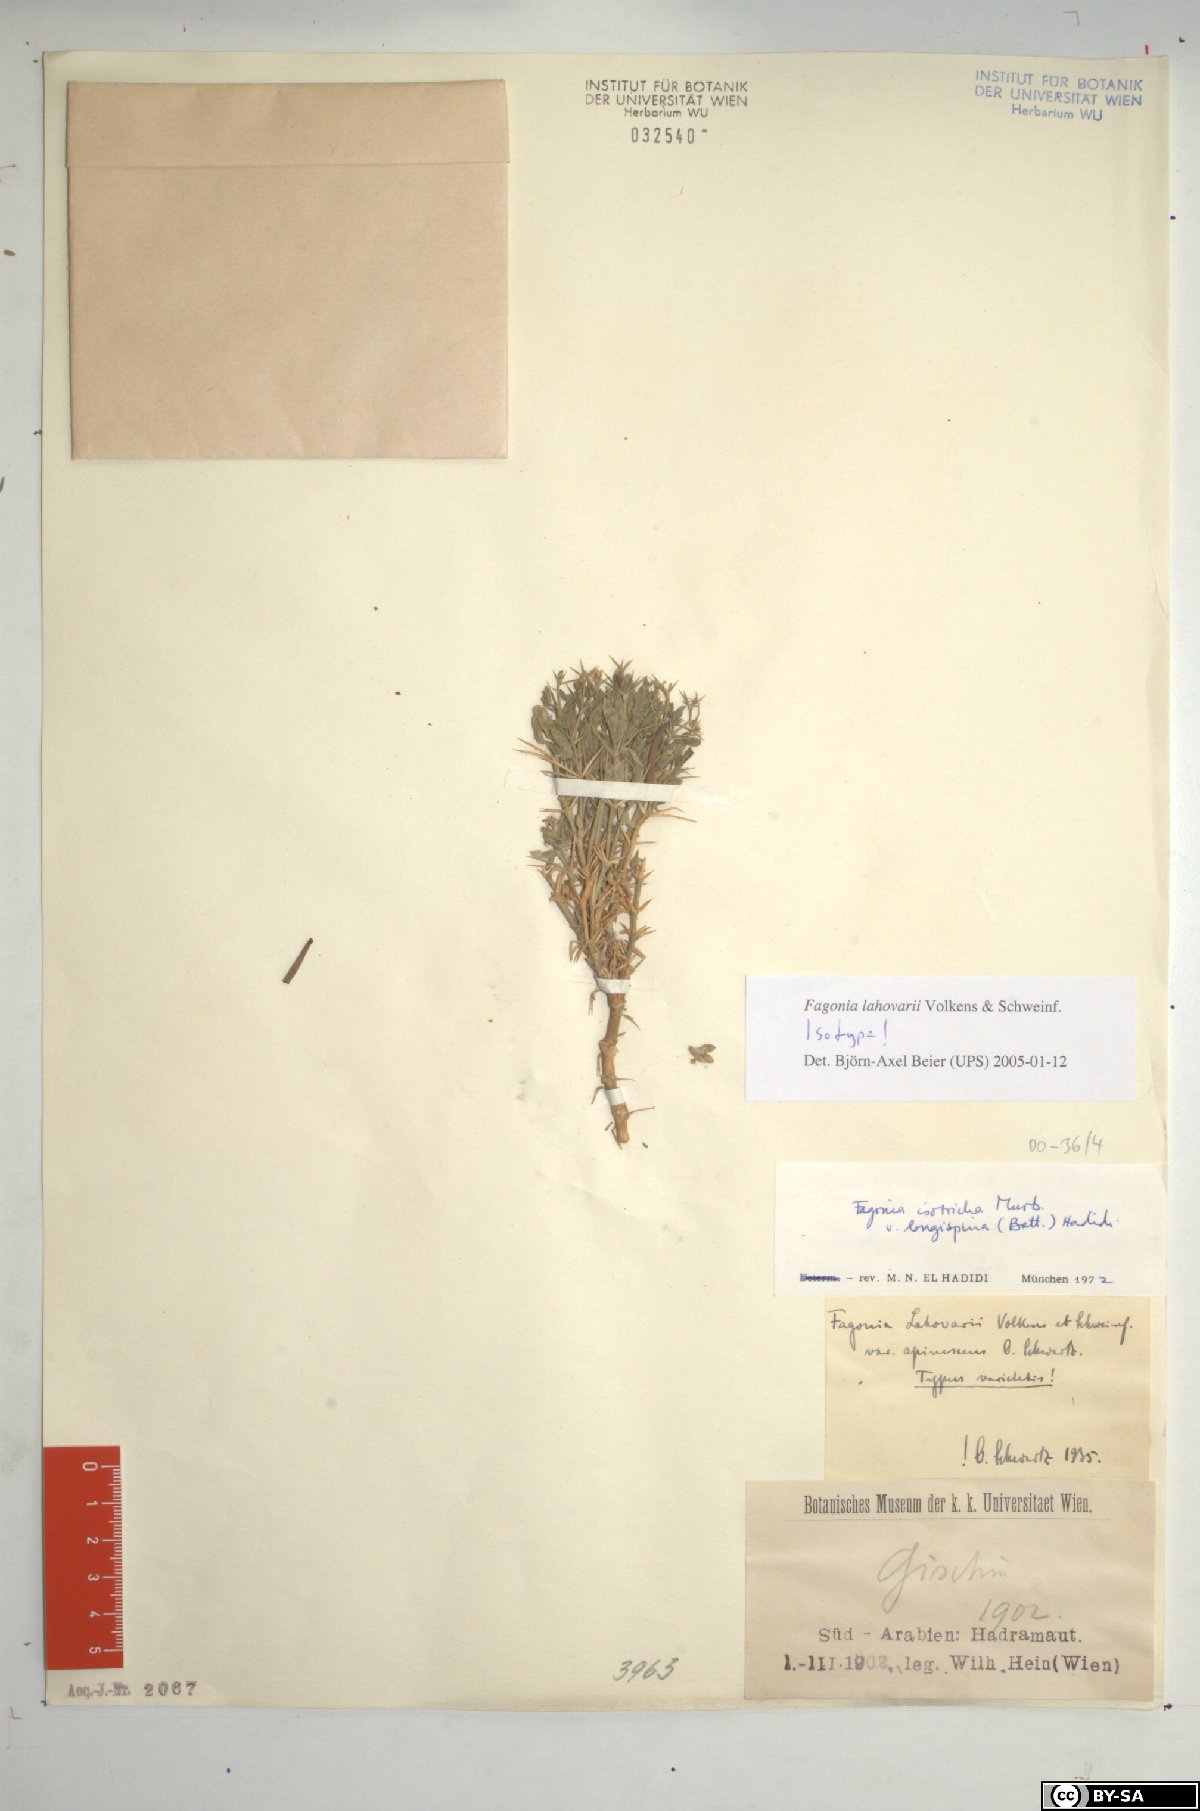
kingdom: Plantae
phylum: Tracheophyta
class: Magnoliopsida
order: Zygophyllales
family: Zygophyllaceae
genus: Fagonia
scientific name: Fagonia longispina
